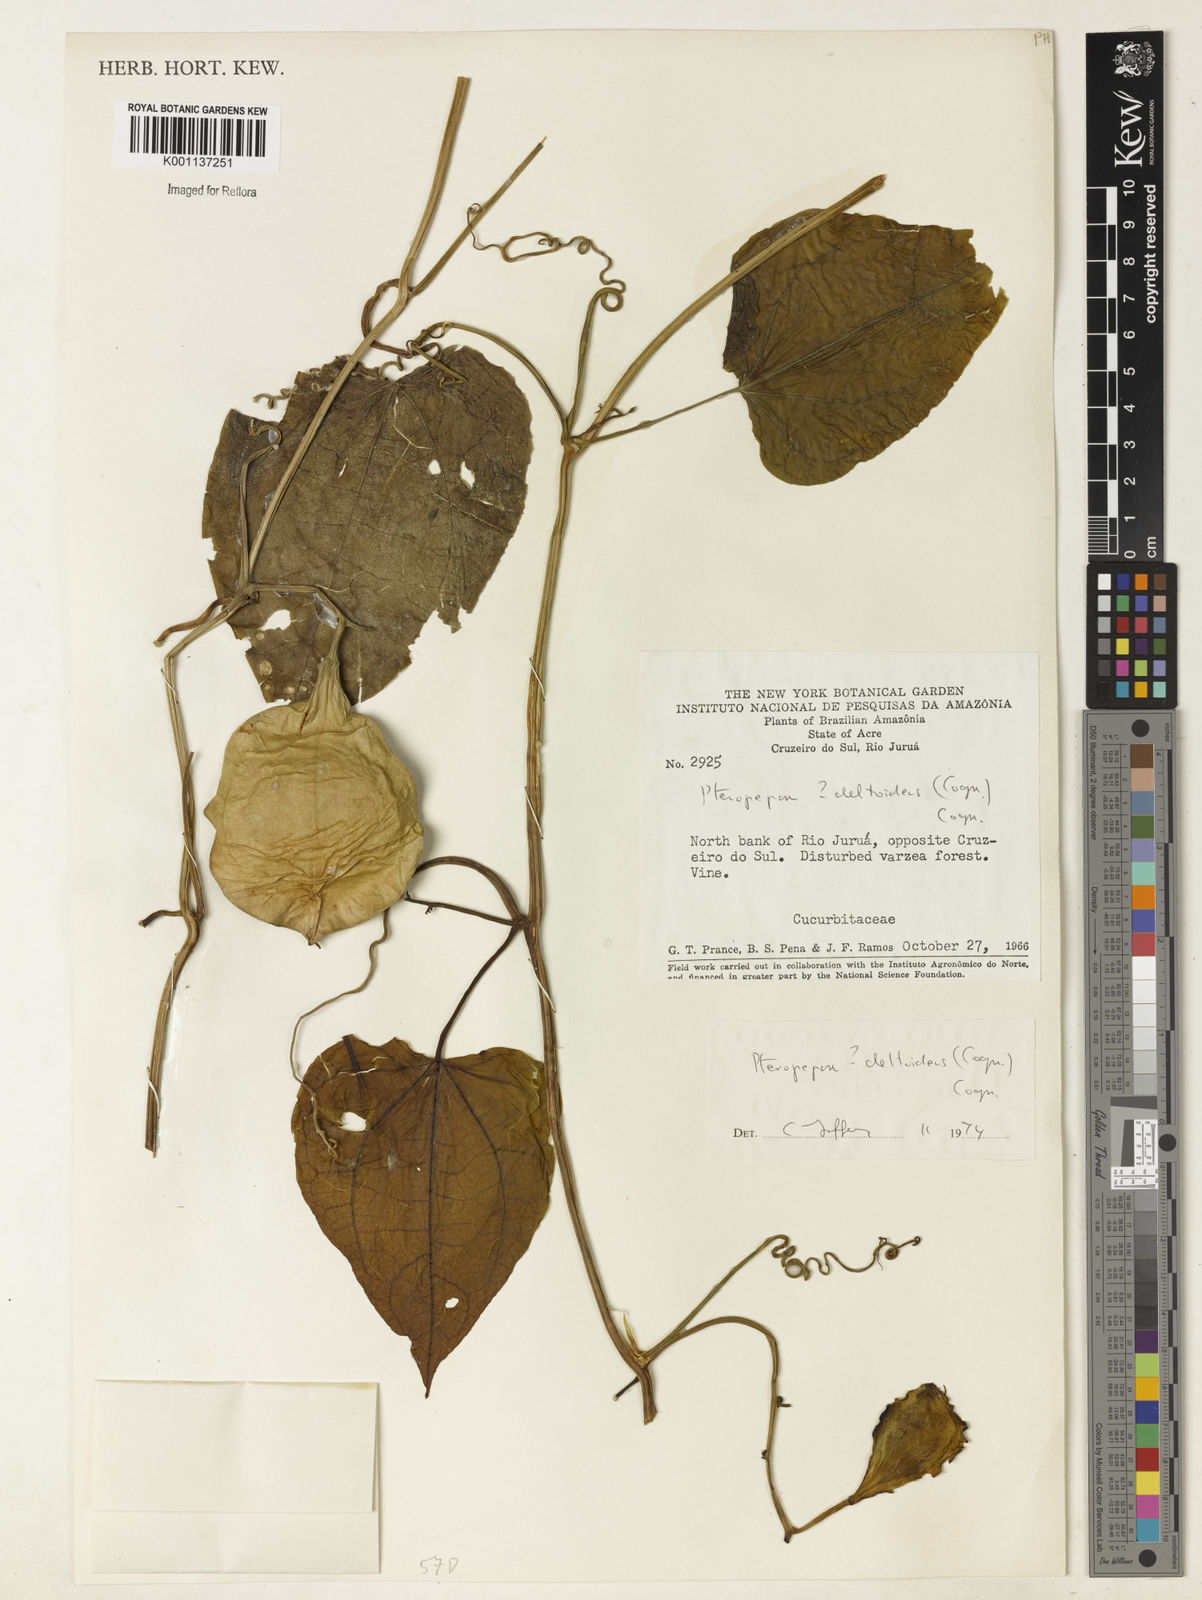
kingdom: Plantae
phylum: Tracheophyta
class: Magnoliopsida
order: Cucurbitales
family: Cucurbitaceae
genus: Pteropepon
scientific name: Pteropepon deltoideus
